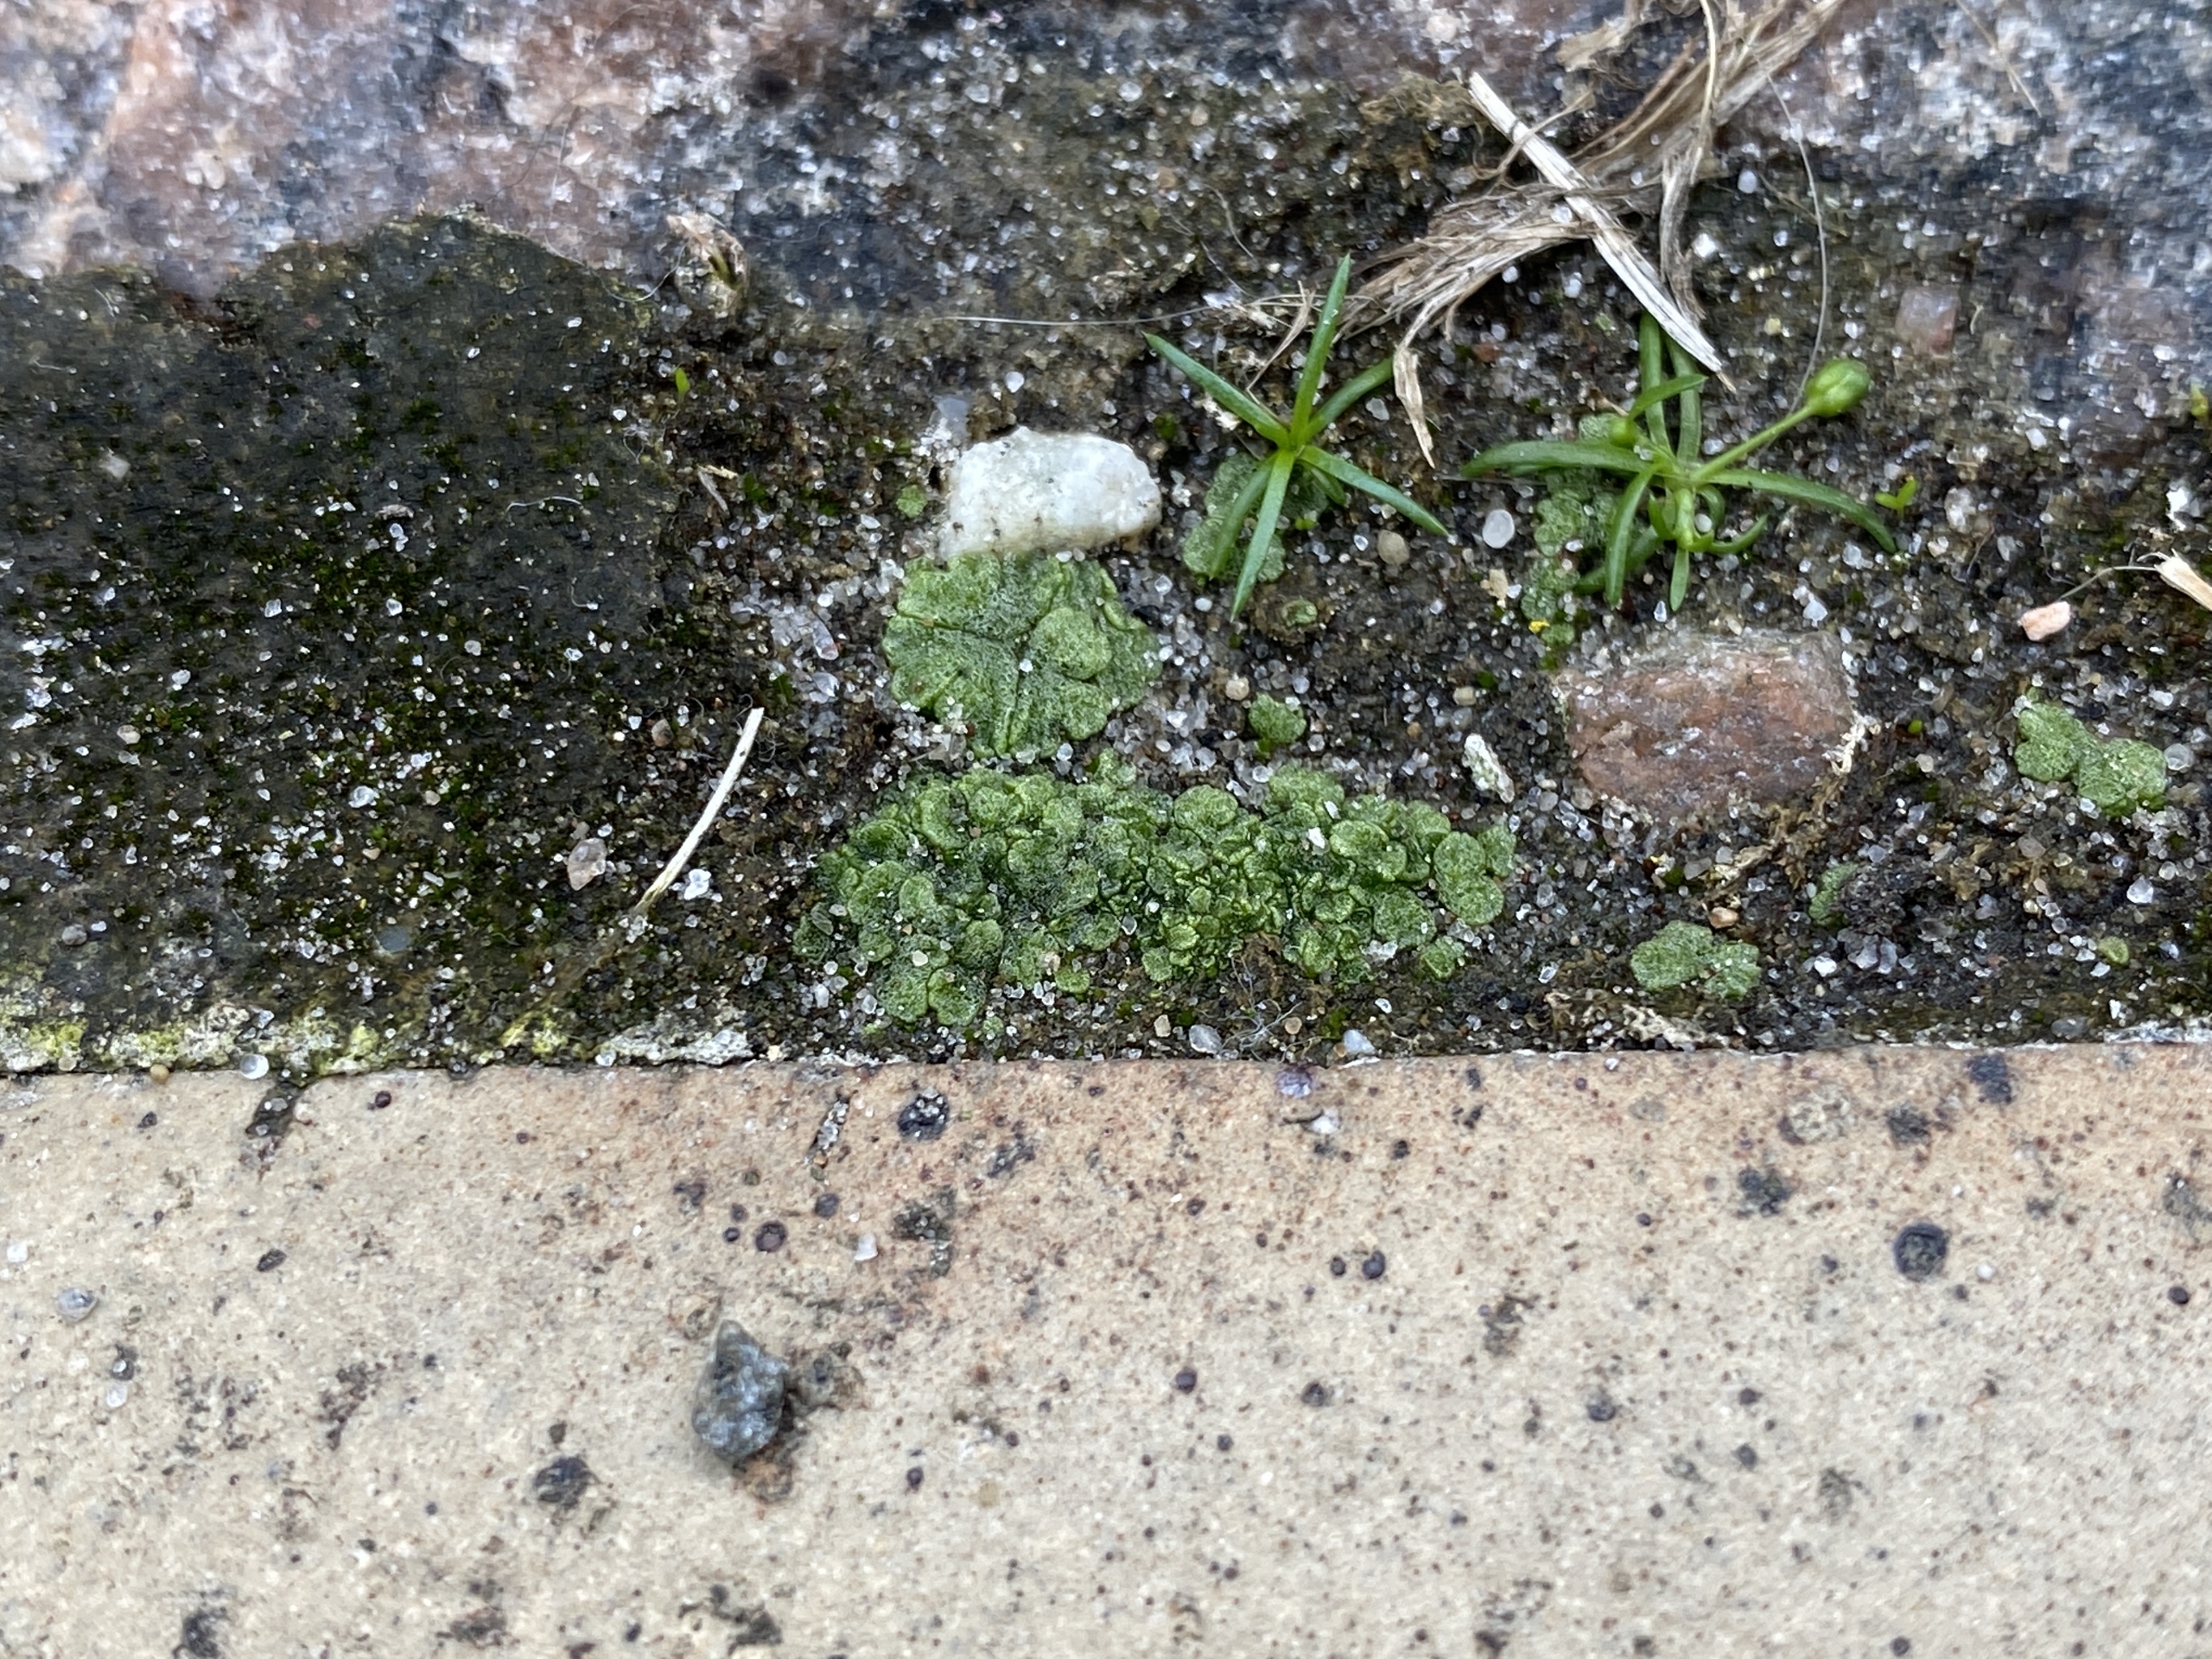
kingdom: Plantae
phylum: Marchantiophyta
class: Marchantiopsida
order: Marchantiales
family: Ricciaceae
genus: Riccia
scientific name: Riccia cavernosa
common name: Grubet stjerneløv
